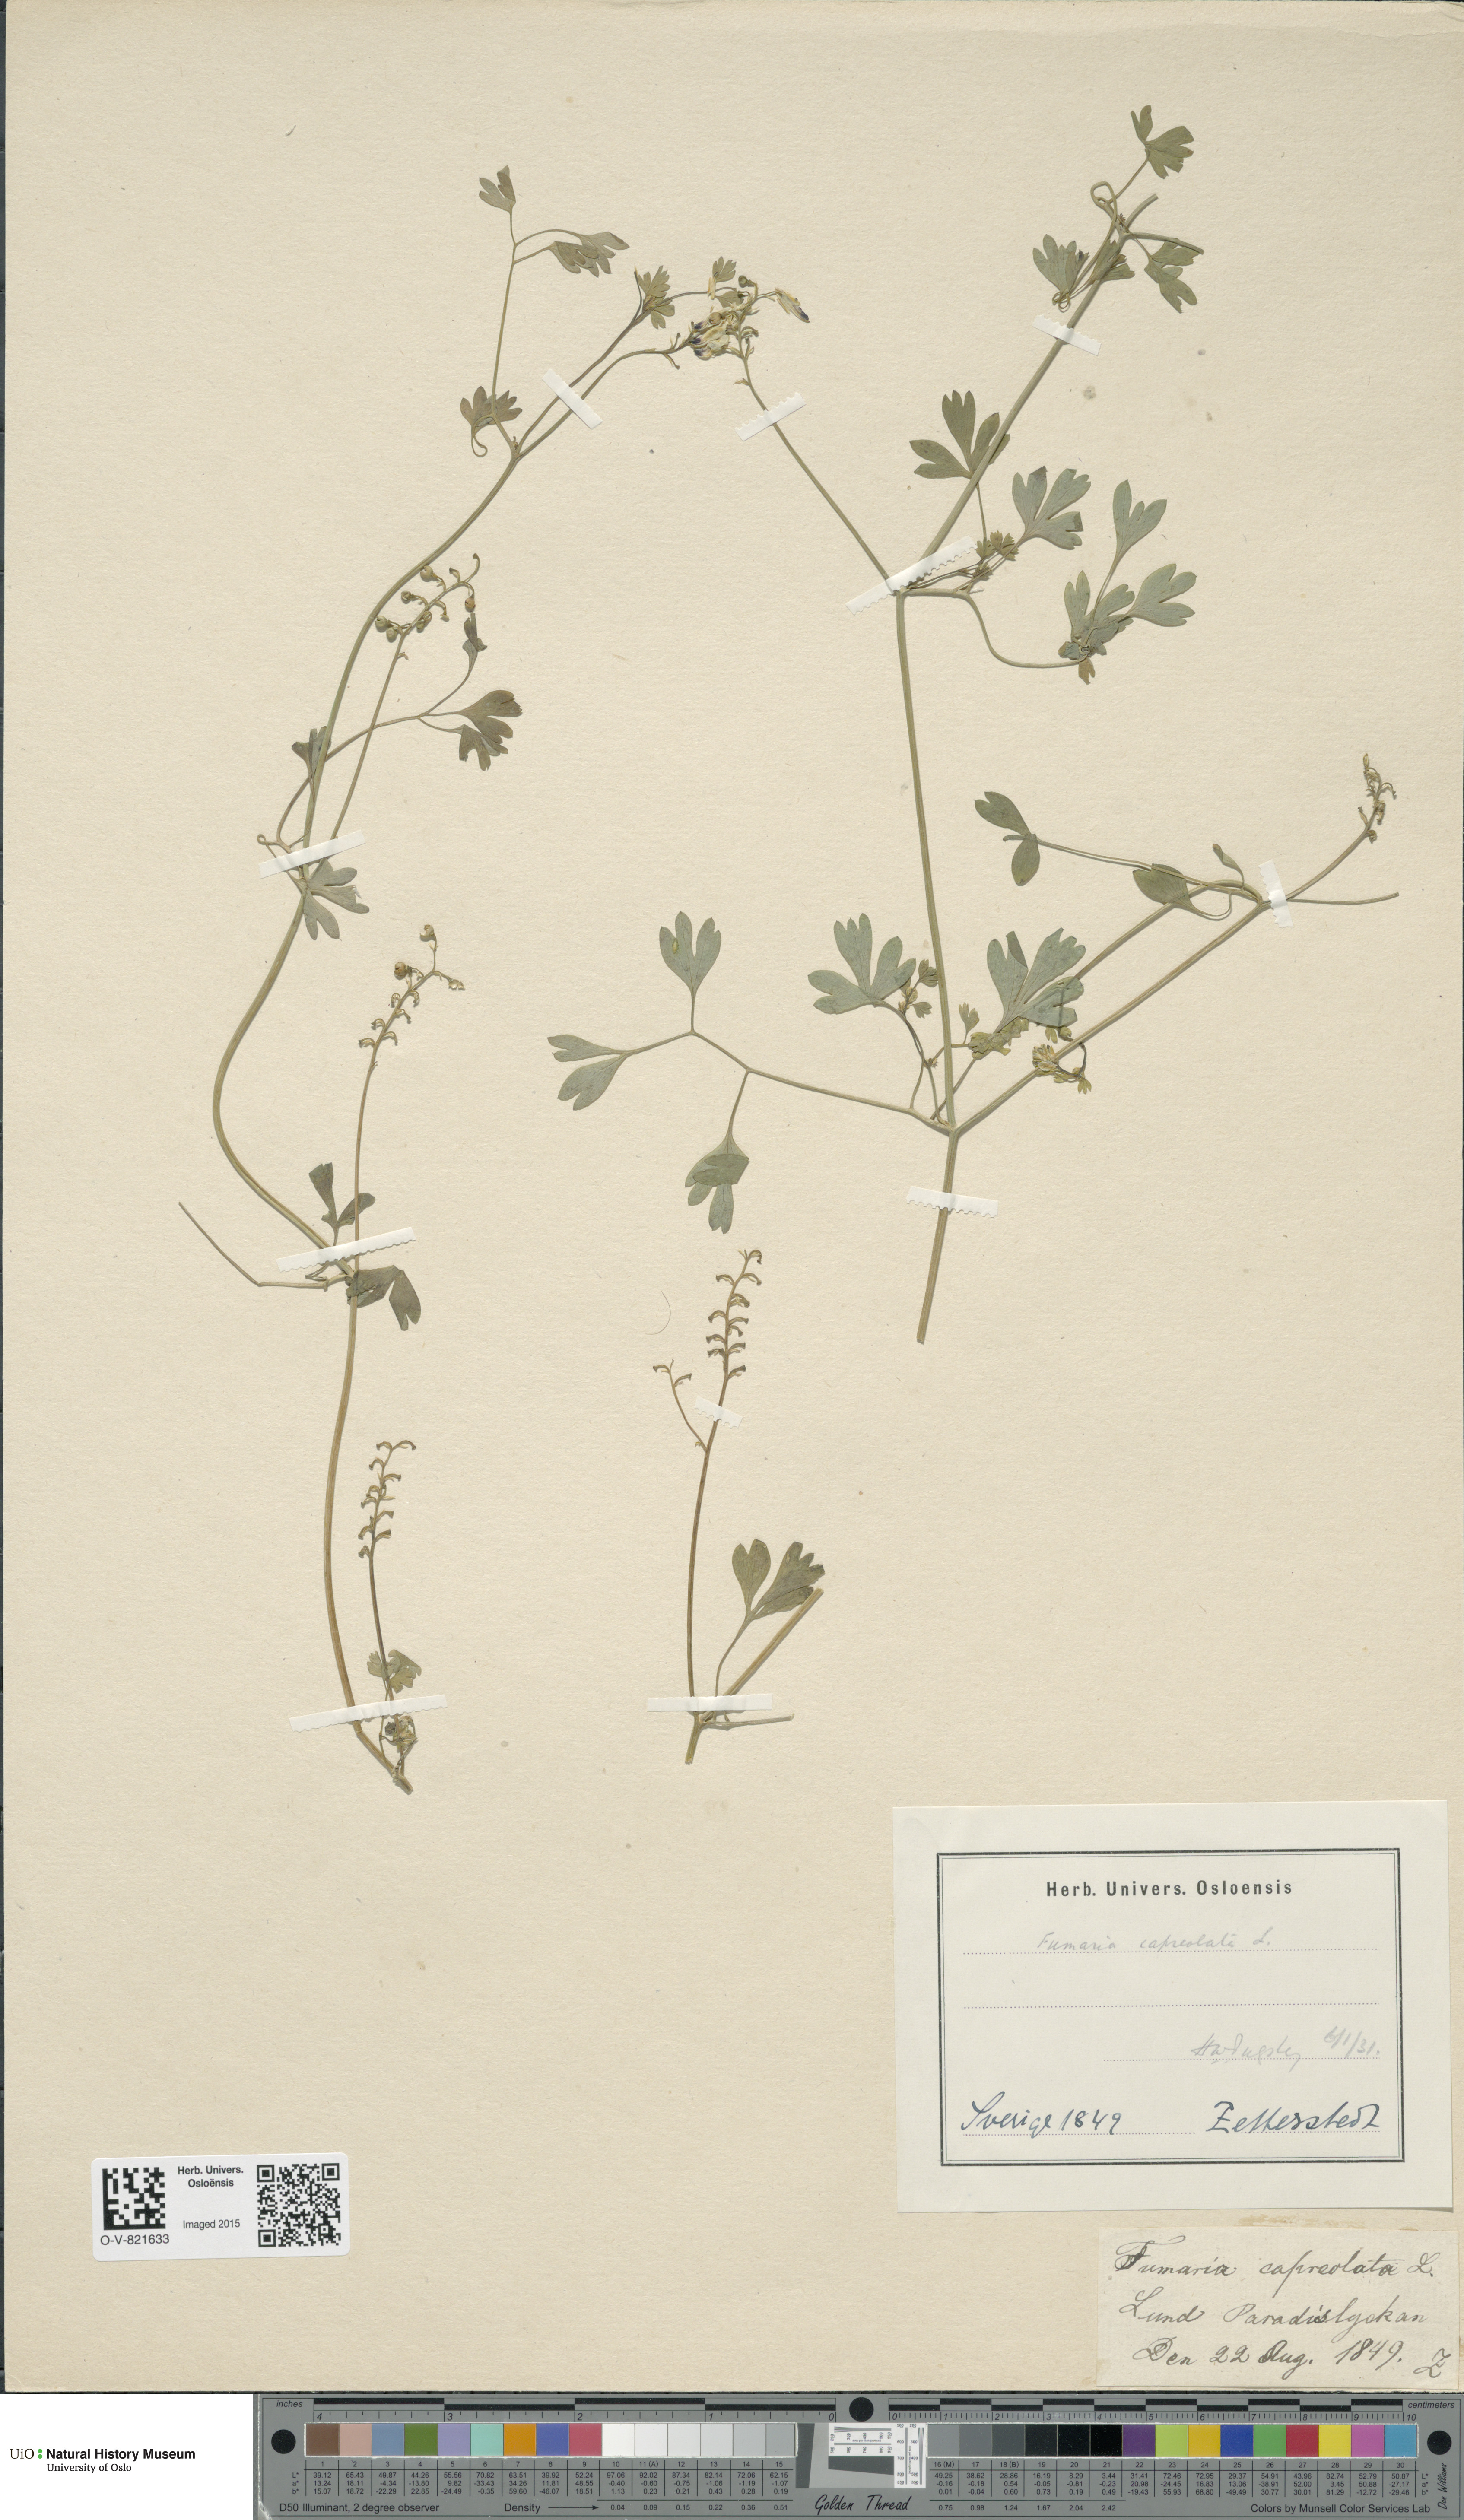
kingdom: Plantae
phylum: Tracheophyta
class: Magnoliopsida
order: Ranunculales
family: Papaveraceae
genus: Fumaria
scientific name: Fumaria capreolata
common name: White ramping-fumitory
